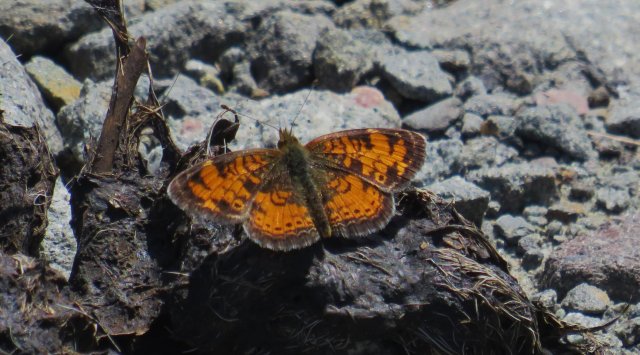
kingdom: Animalia
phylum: Arthropoda
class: Insecta
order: Lepidoptera
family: Nymphalidae
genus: Phyciodes
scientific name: Phyciodes tharos
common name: Northern Crescent
